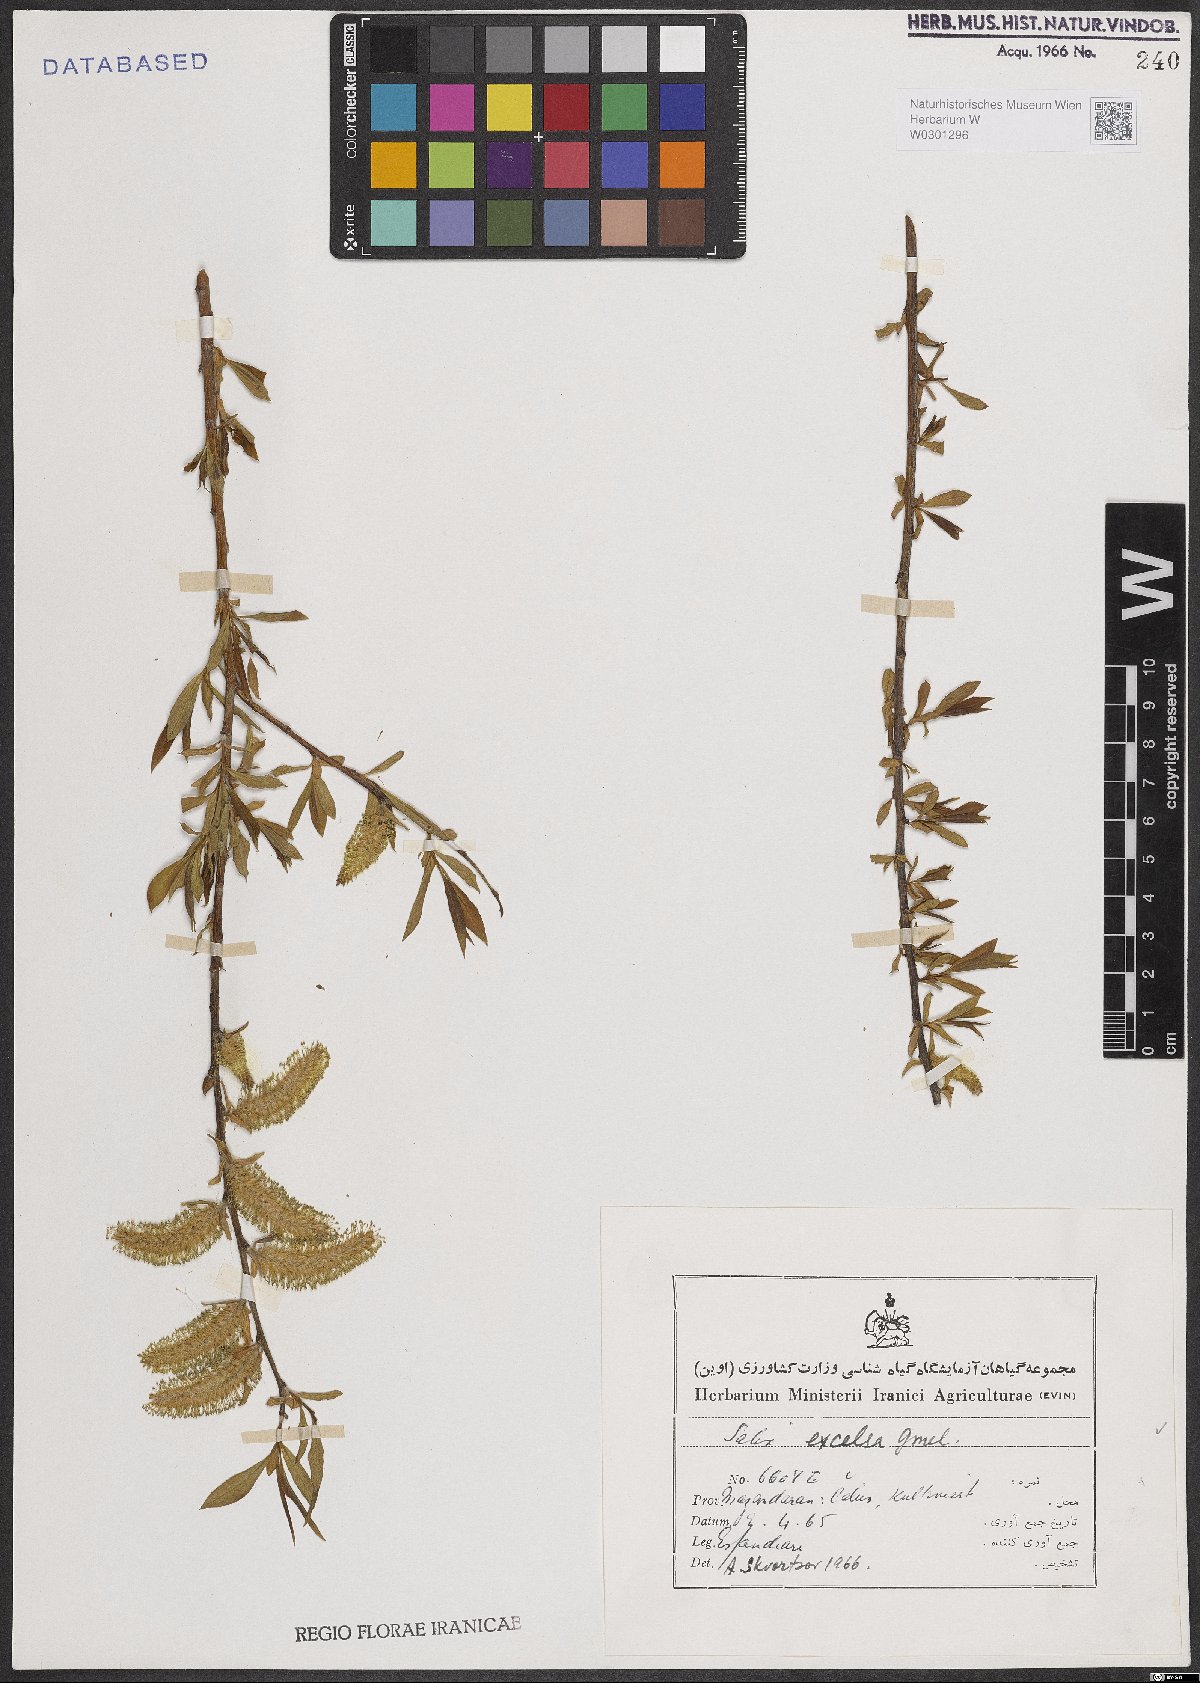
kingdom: Plantae
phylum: Tracheophyta
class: Magnoliopsida
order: Malpighiales
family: Salicaceae
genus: Salix
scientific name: Salix excelsa
